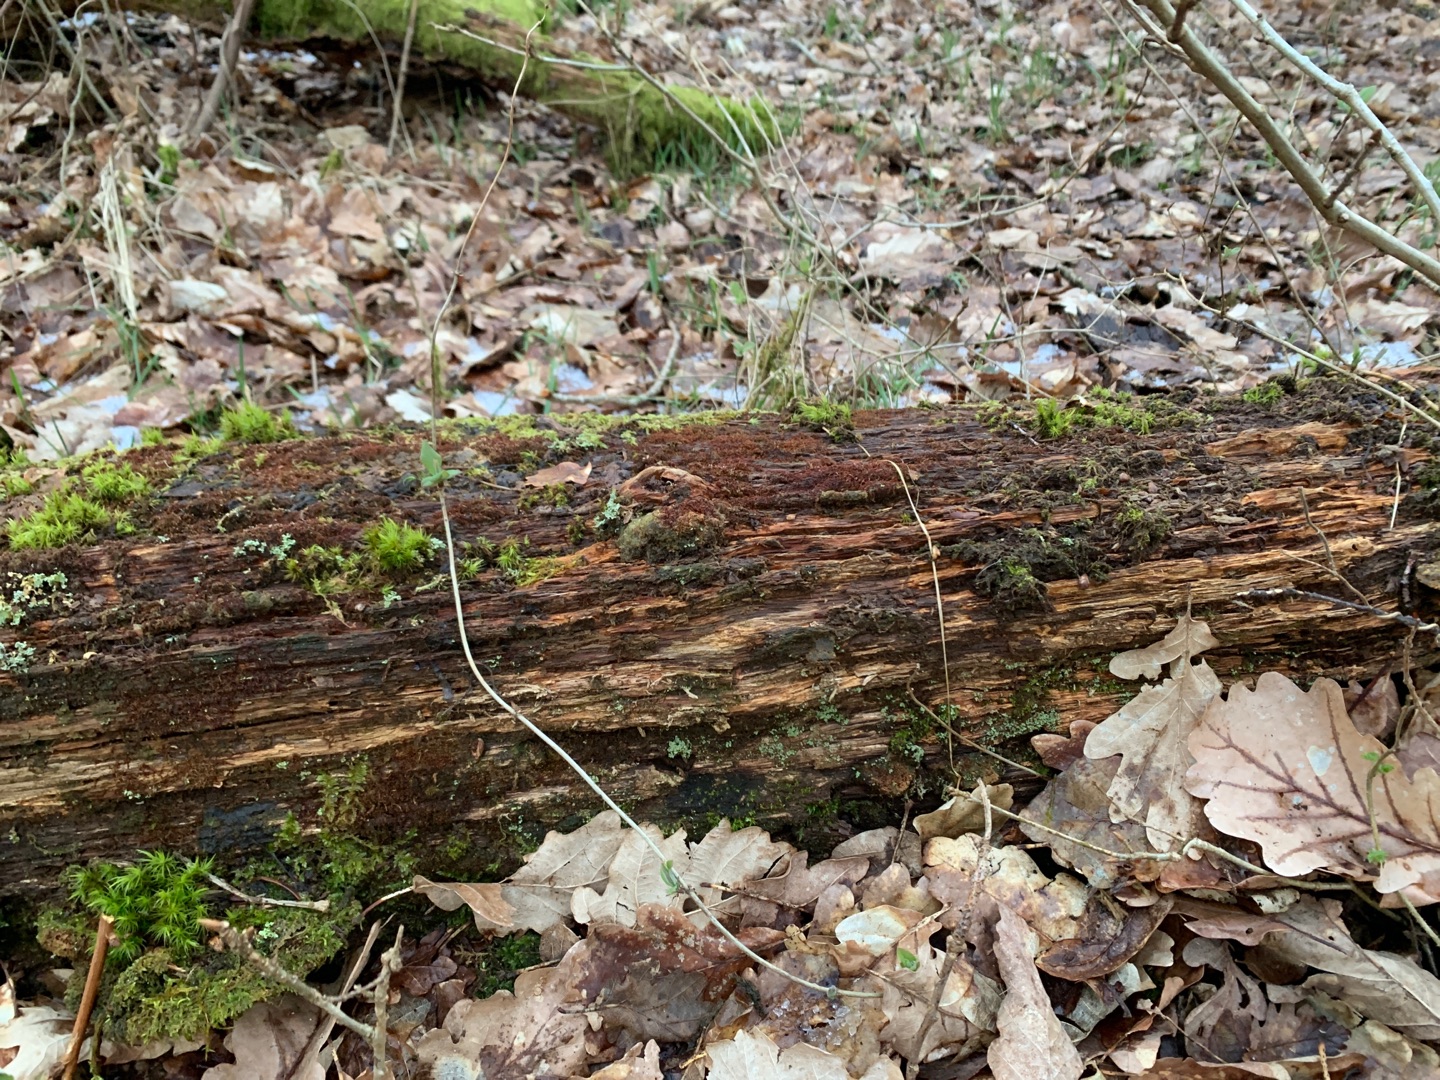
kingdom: Plantae
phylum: Marchantiophyta
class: Jungermanniopsida
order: Jungermanniales
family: Cephaloziaceae
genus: Nowellia
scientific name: Nowellia curvifolia
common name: Krumbladet stødmos
